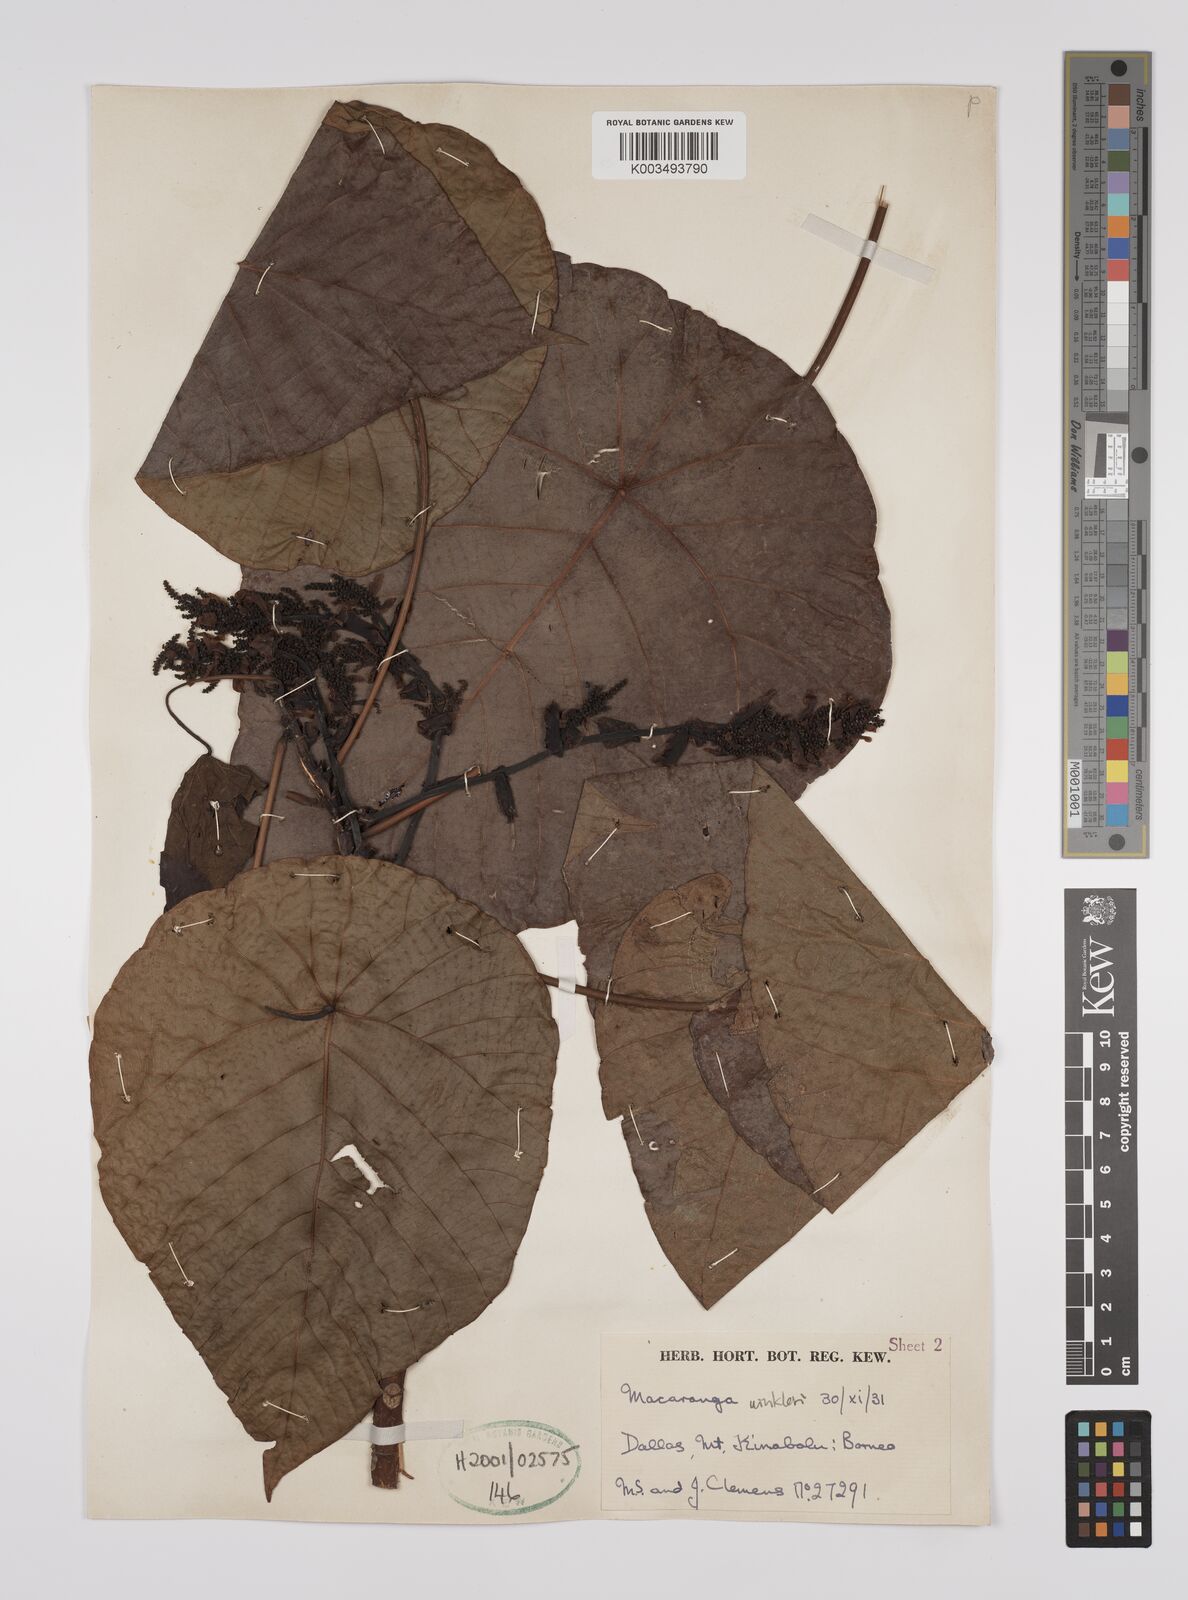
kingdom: Plantae
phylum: Tracheophyta
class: Magnoliopsida
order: Malpighiales
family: Euphorbiaceae
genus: Macaranga
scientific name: Macaranga winkleri
